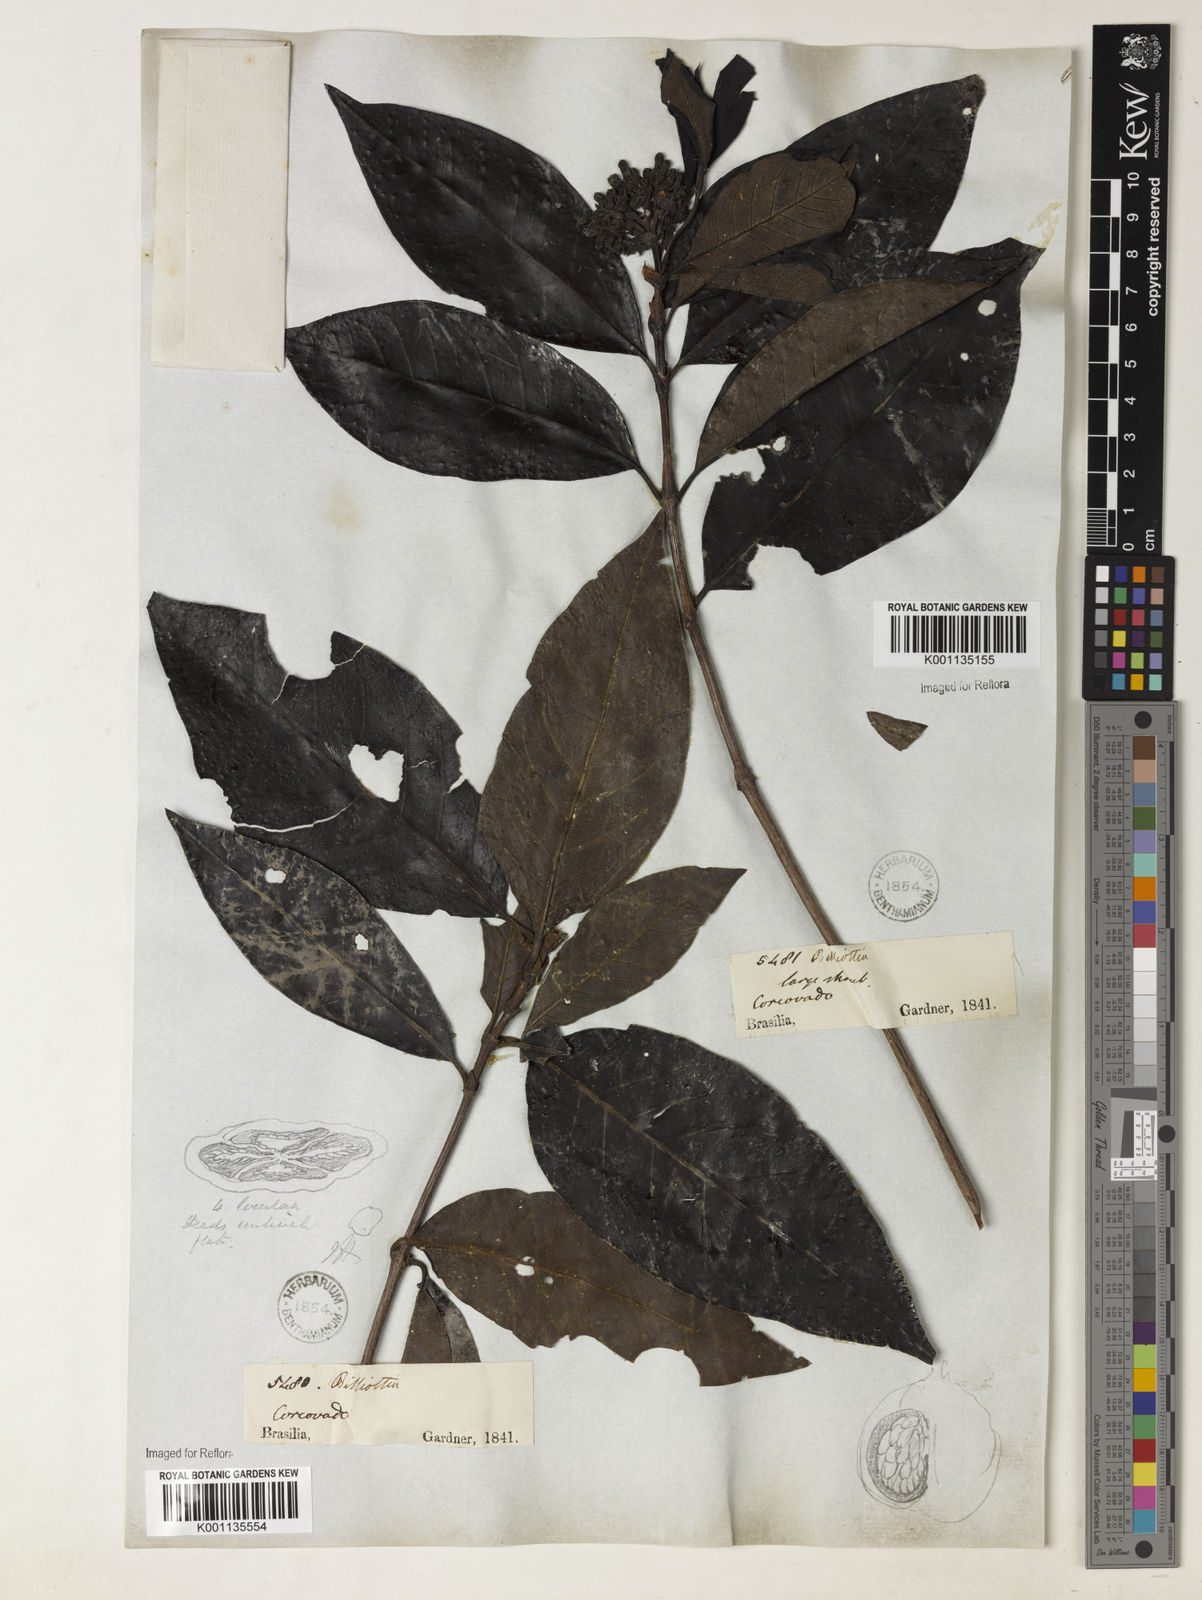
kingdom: Plantae
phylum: Tracheophyta
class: Magnoliopsida
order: Gentianales
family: Rubiaceae
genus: Melanopsidium
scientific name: Melanopsidium nigrum
